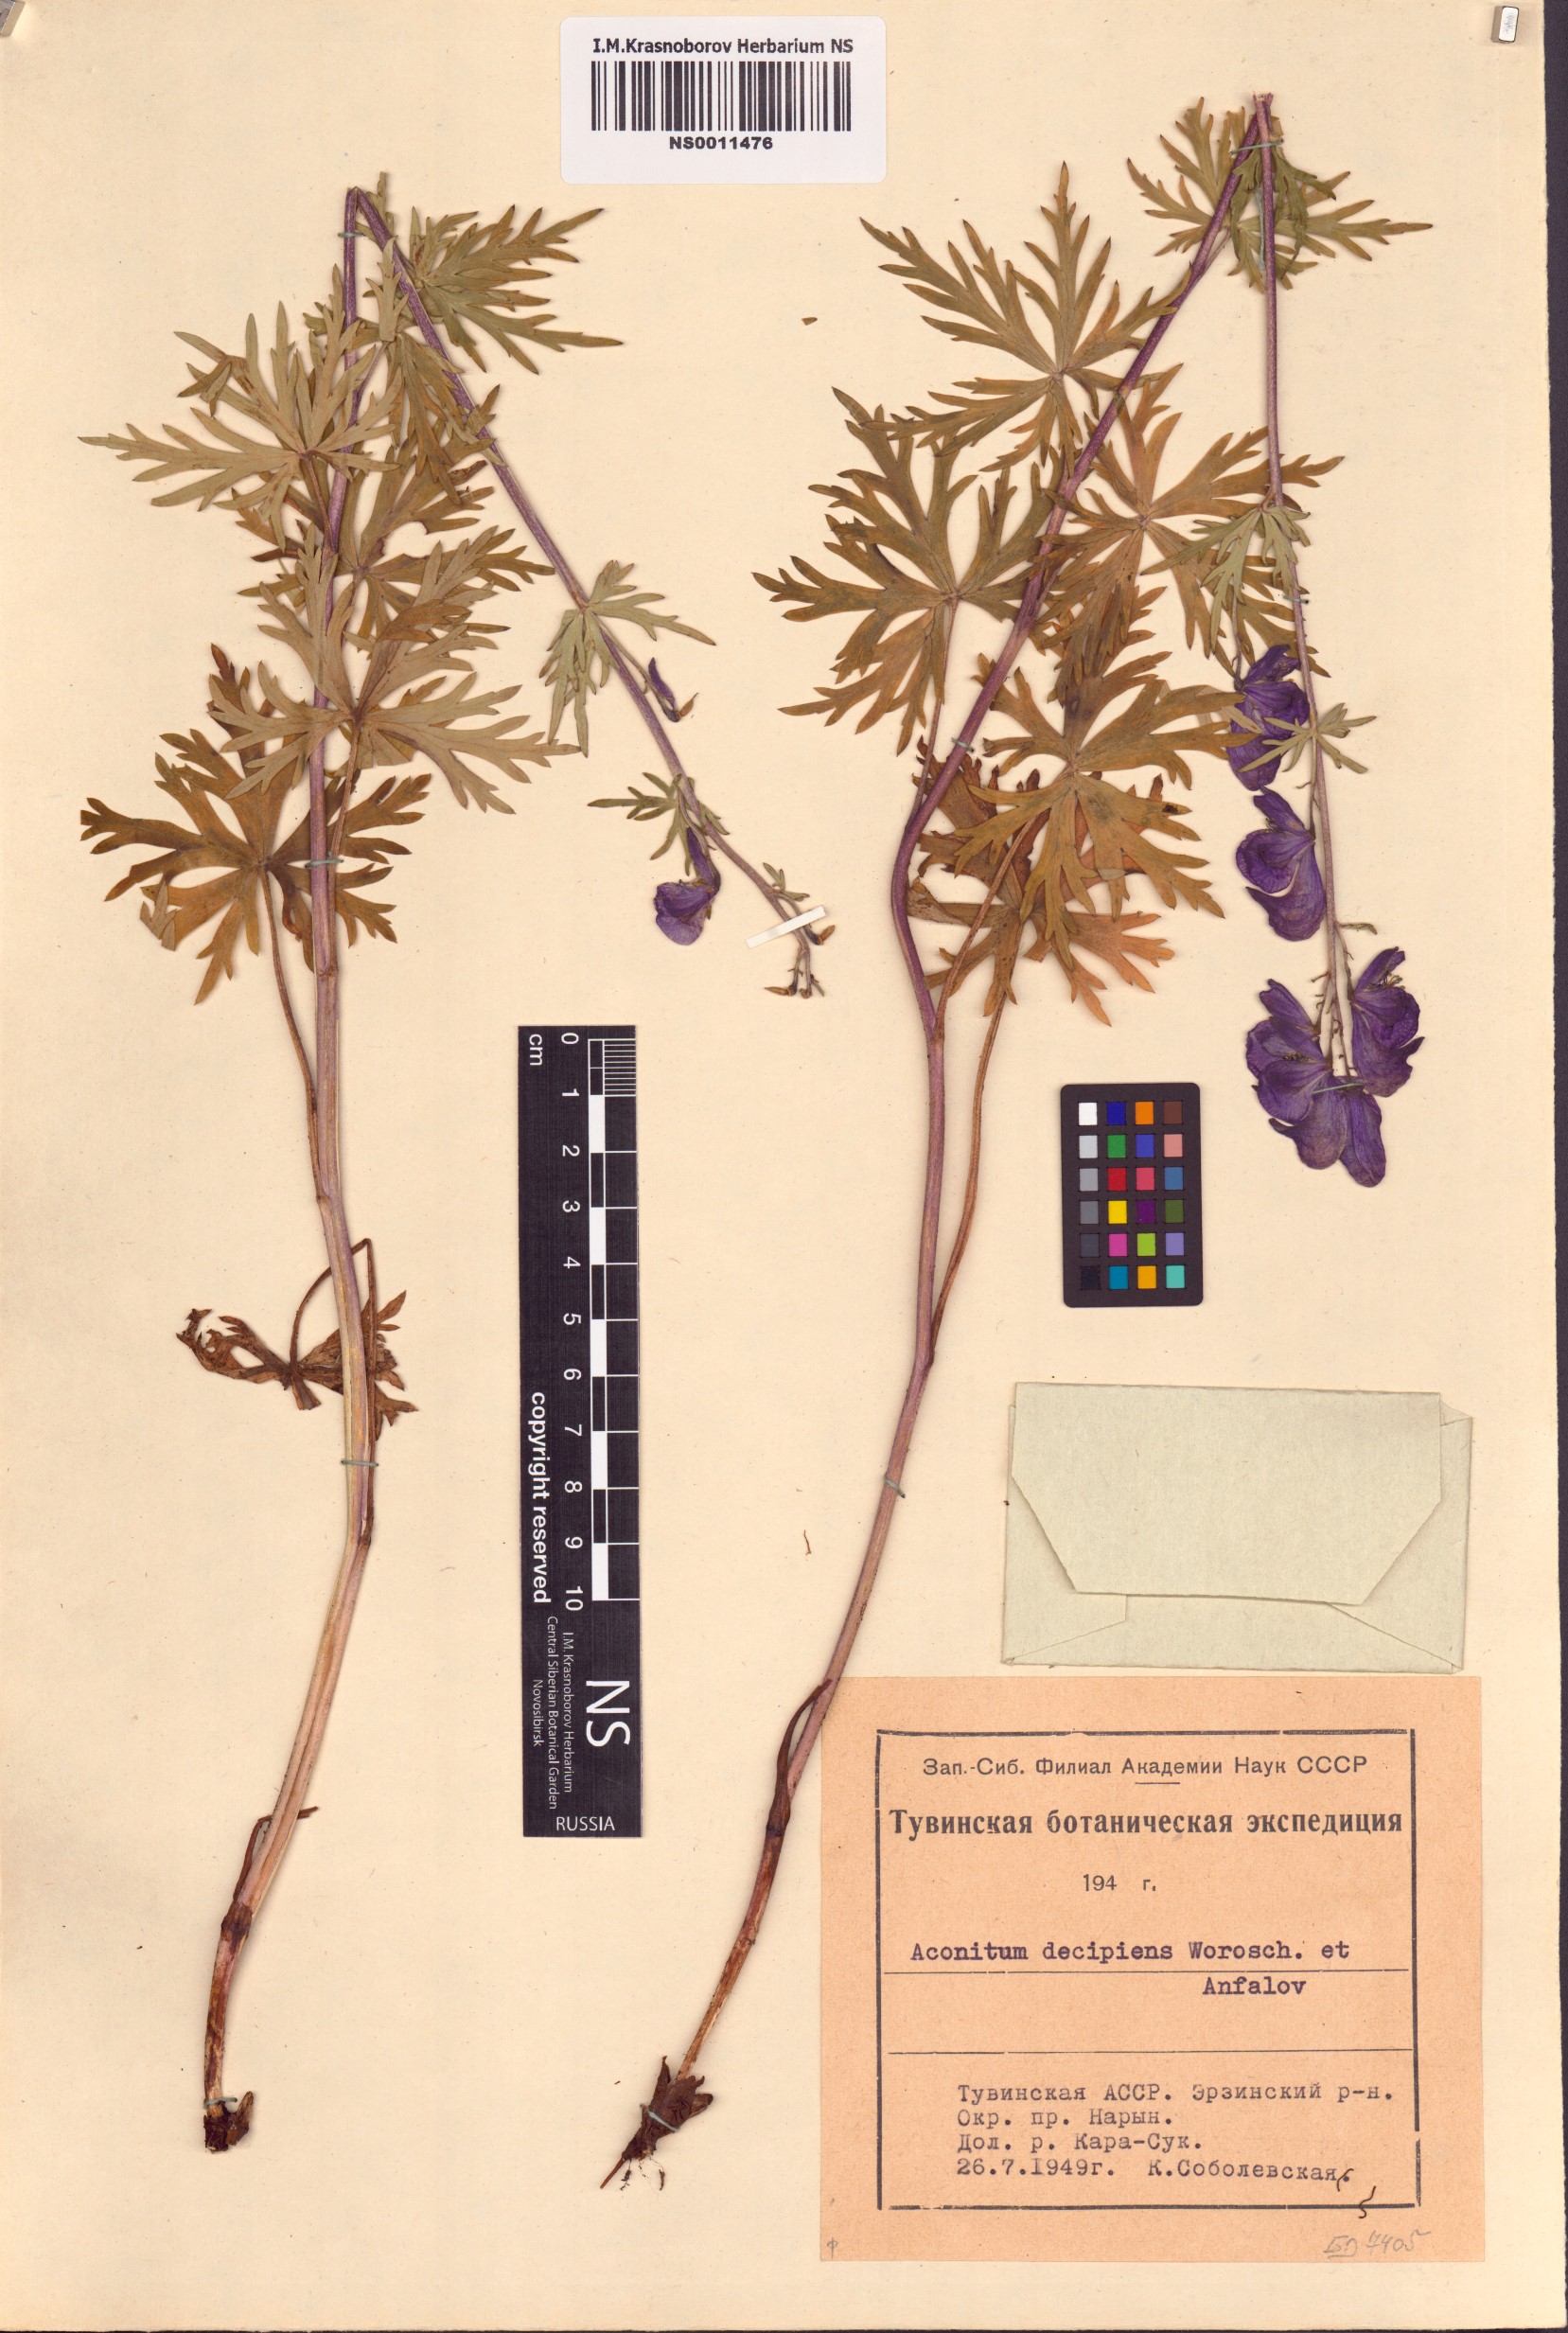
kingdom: Plantae
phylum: Tracheophyta
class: Magnoliopsida
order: Ranunculales
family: Ranunculaceae
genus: Aconitum
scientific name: Aconitum decipiens
